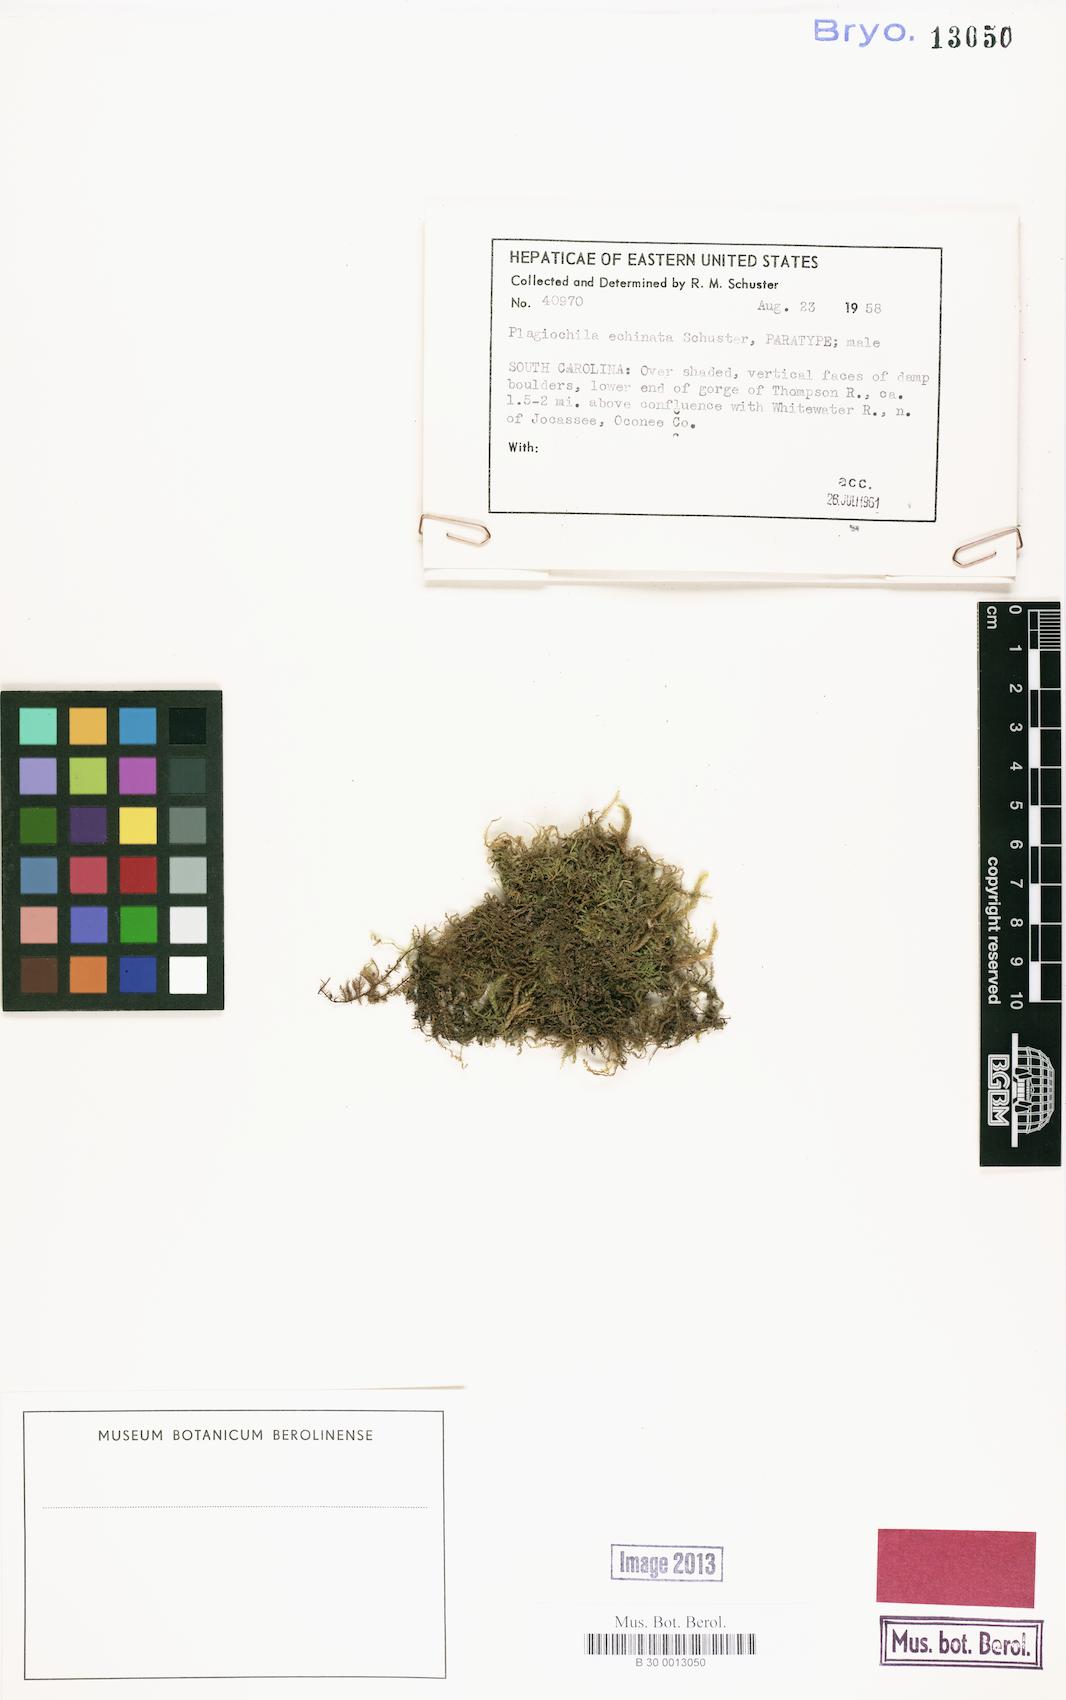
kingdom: Plantae
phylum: Marchantiophyta
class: Jungermanniopsida
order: Jungermanniales
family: Plagiochilaceae
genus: Plagiochila
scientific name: Plagiochila echinata
